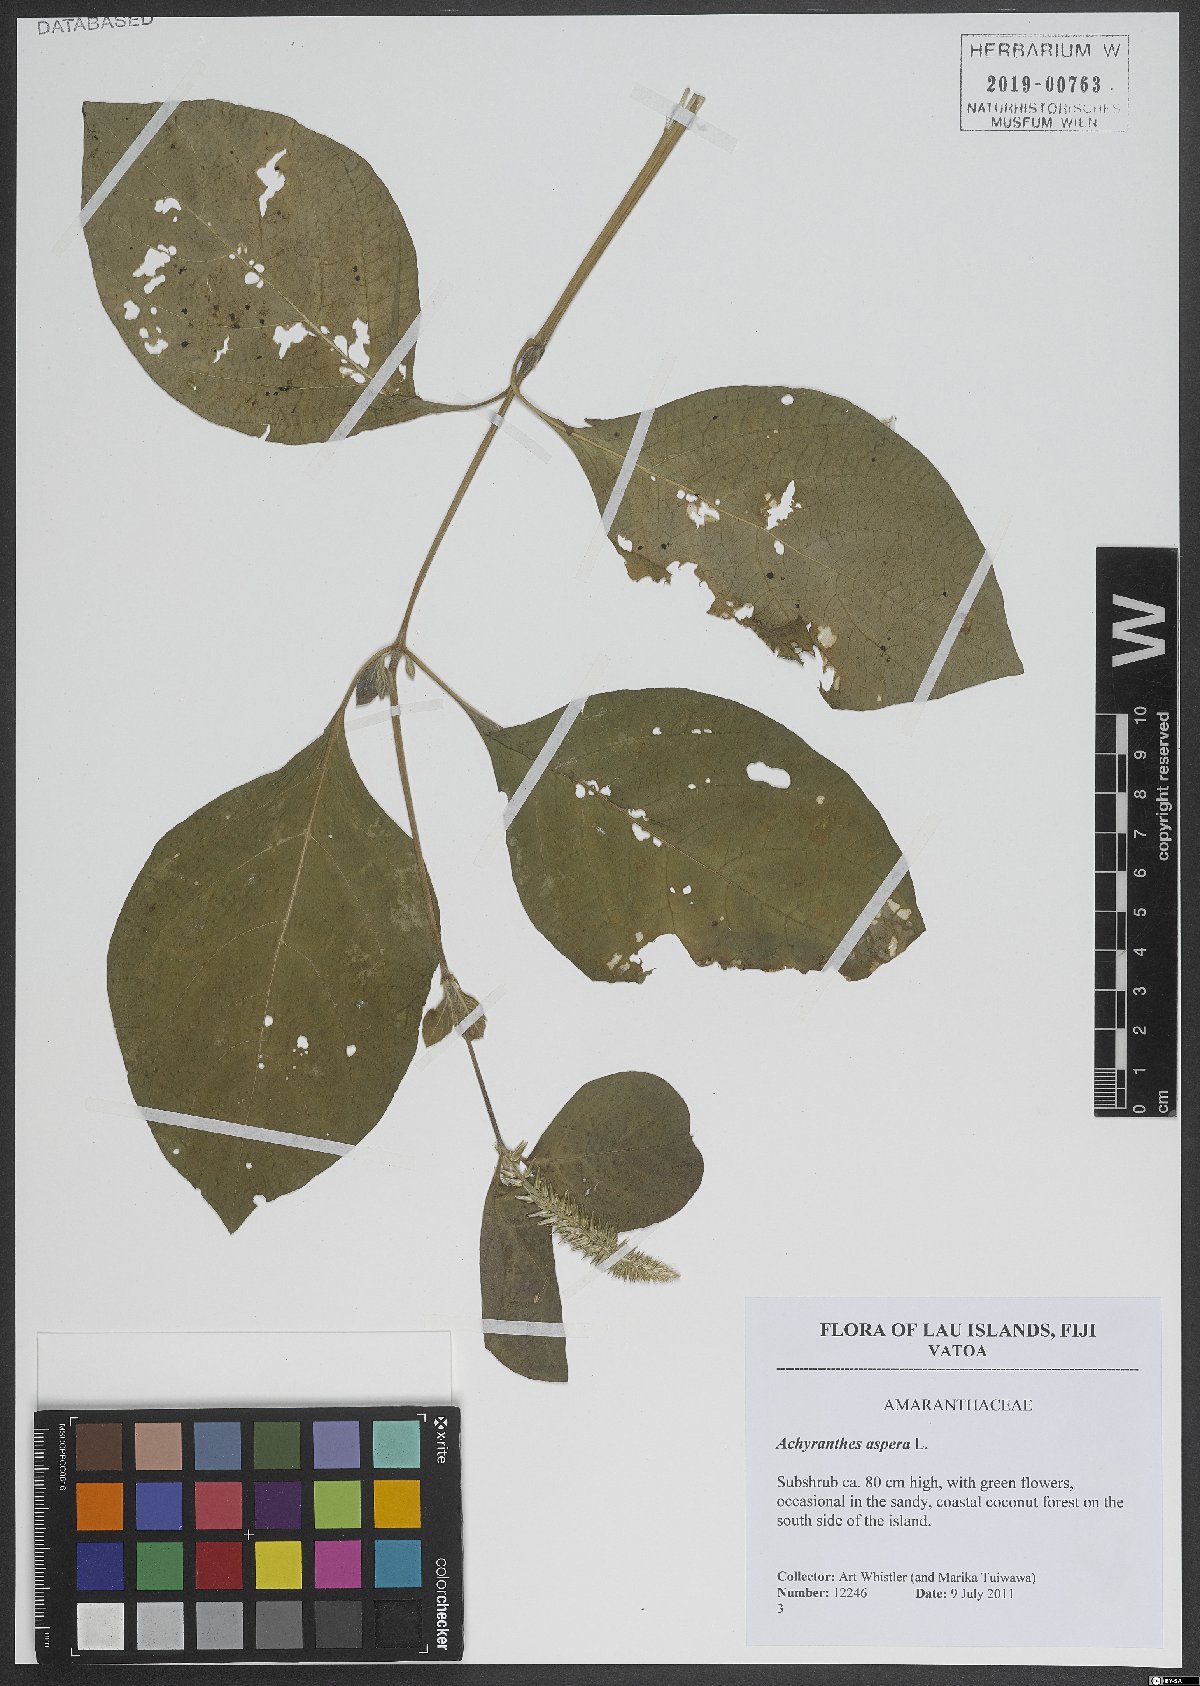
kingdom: Plantae
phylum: Tracheophyta
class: Magnoliopsida
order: Caryophyllales
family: Amaranthaceae
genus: Achyranthes
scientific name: Achyranthes bidentata
